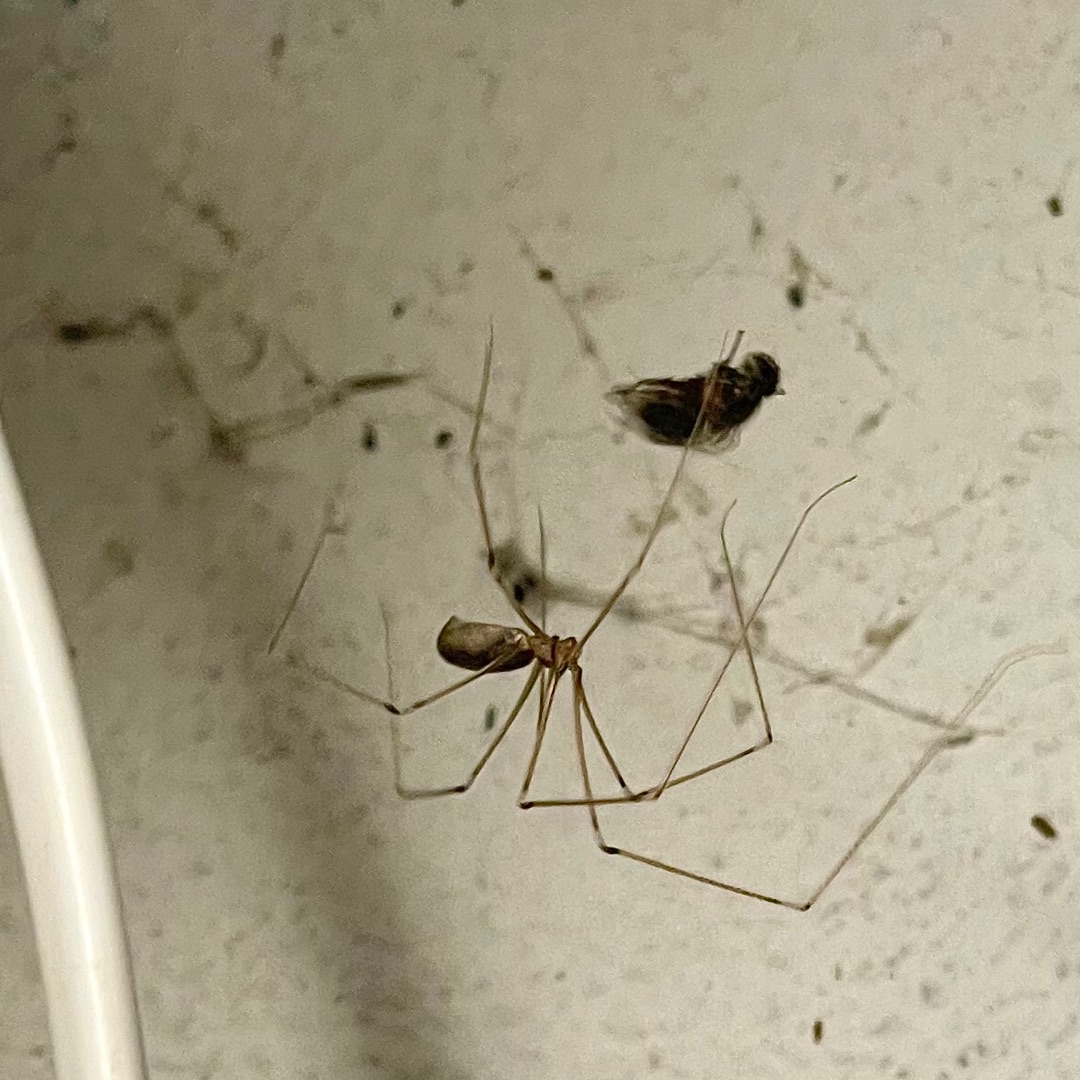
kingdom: Animalia
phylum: Arthropoda
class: Arachnida
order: Araneae
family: Pholcidae
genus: Pholcus
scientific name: Pholcus phalangioides
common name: Mejeredderkop
